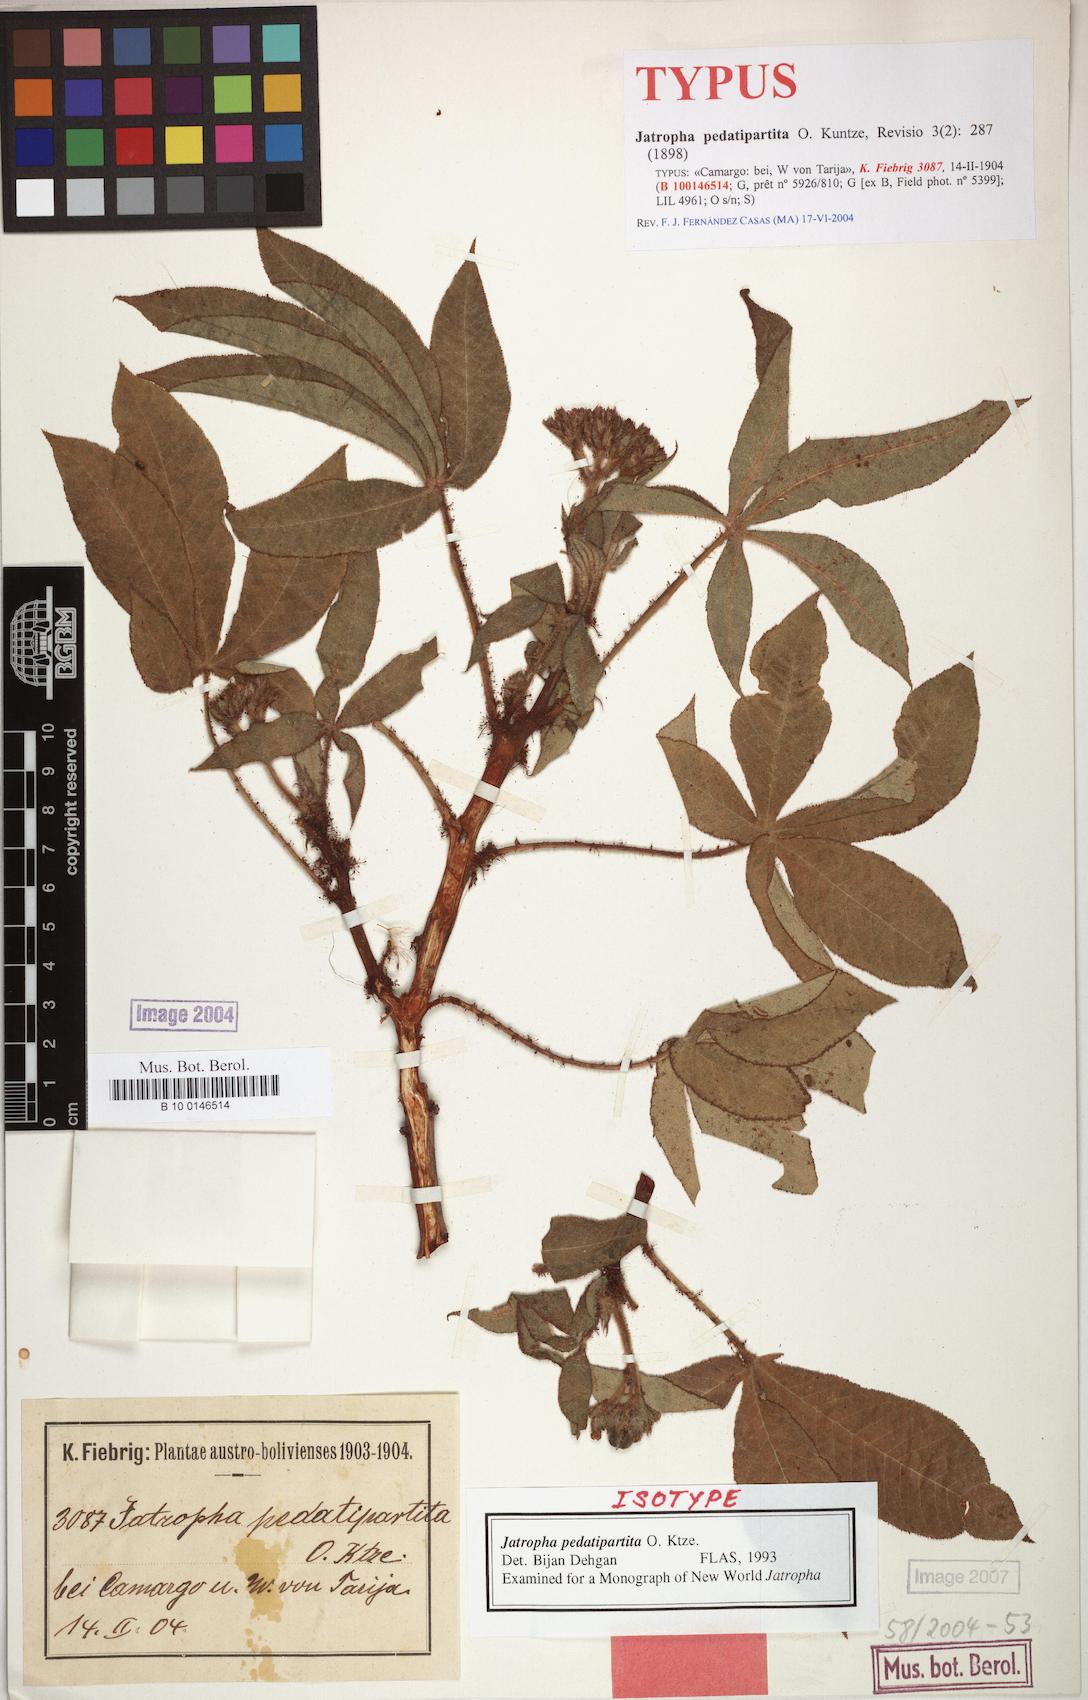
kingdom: Plantae
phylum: Tracheophyta
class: Magnoliopsida
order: Malpighiales
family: Euphorbiaceae
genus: Jatropha
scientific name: Jatropha clavuligera
